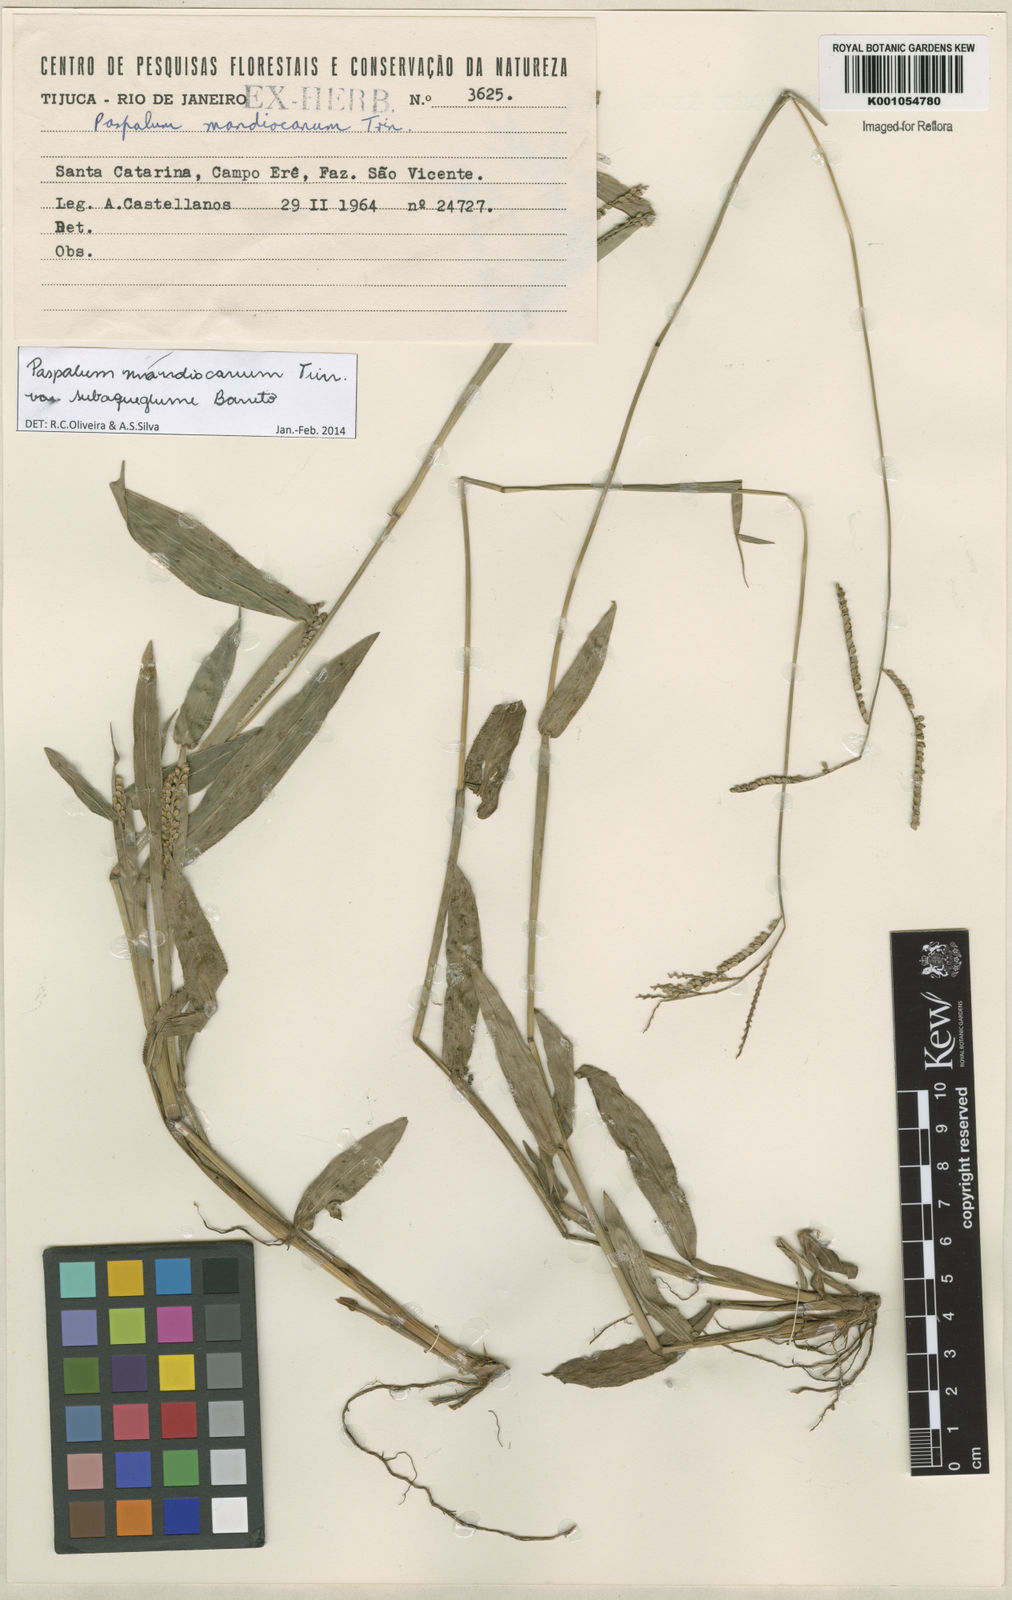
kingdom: Plantae
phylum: Tracheophyta
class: Liliopsida
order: Poales
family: Poaceae
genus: Paspalum
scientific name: Paspalum mandiocanum
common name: Paspalum
